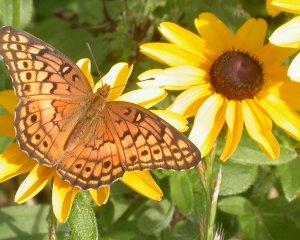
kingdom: Animalia
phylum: Arthropoda
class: Insecta
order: Lepidoptera
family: Nymphalidae
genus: Euptoieta
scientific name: Euptoieta claudia
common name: Variegated Fritillary
